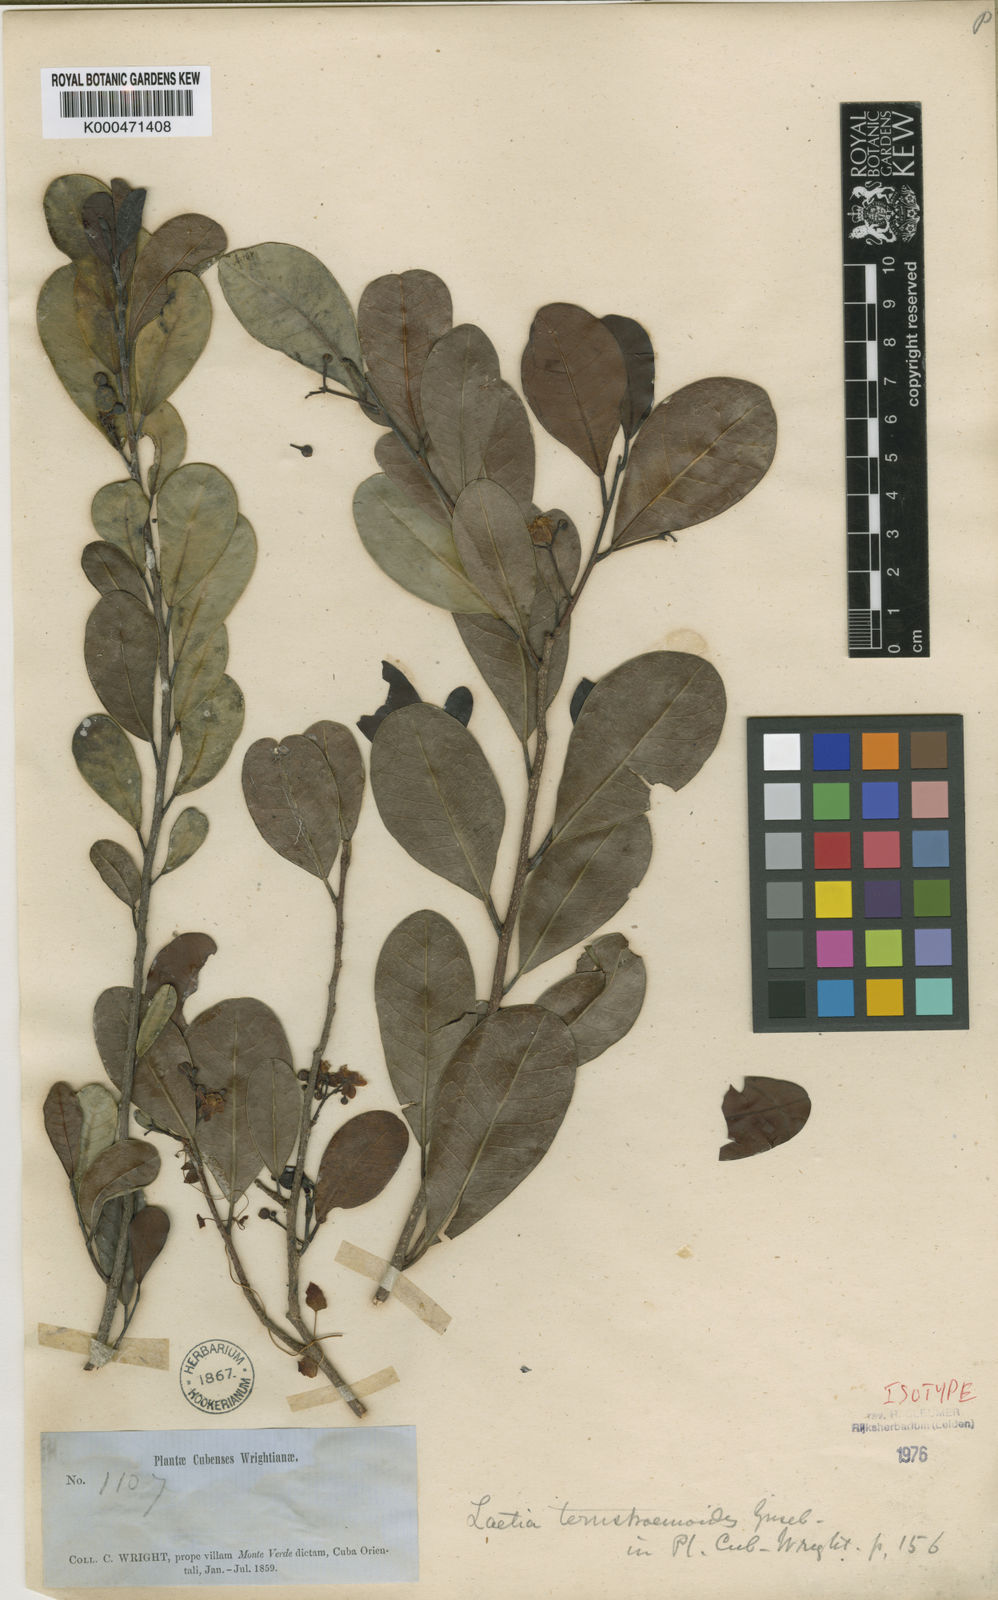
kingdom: Plantae
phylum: Tracheophyta
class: Magnoliopsida
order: Malpighiales
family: Salicaceae
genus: Casearia
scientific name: Casearia ternstroemioides
